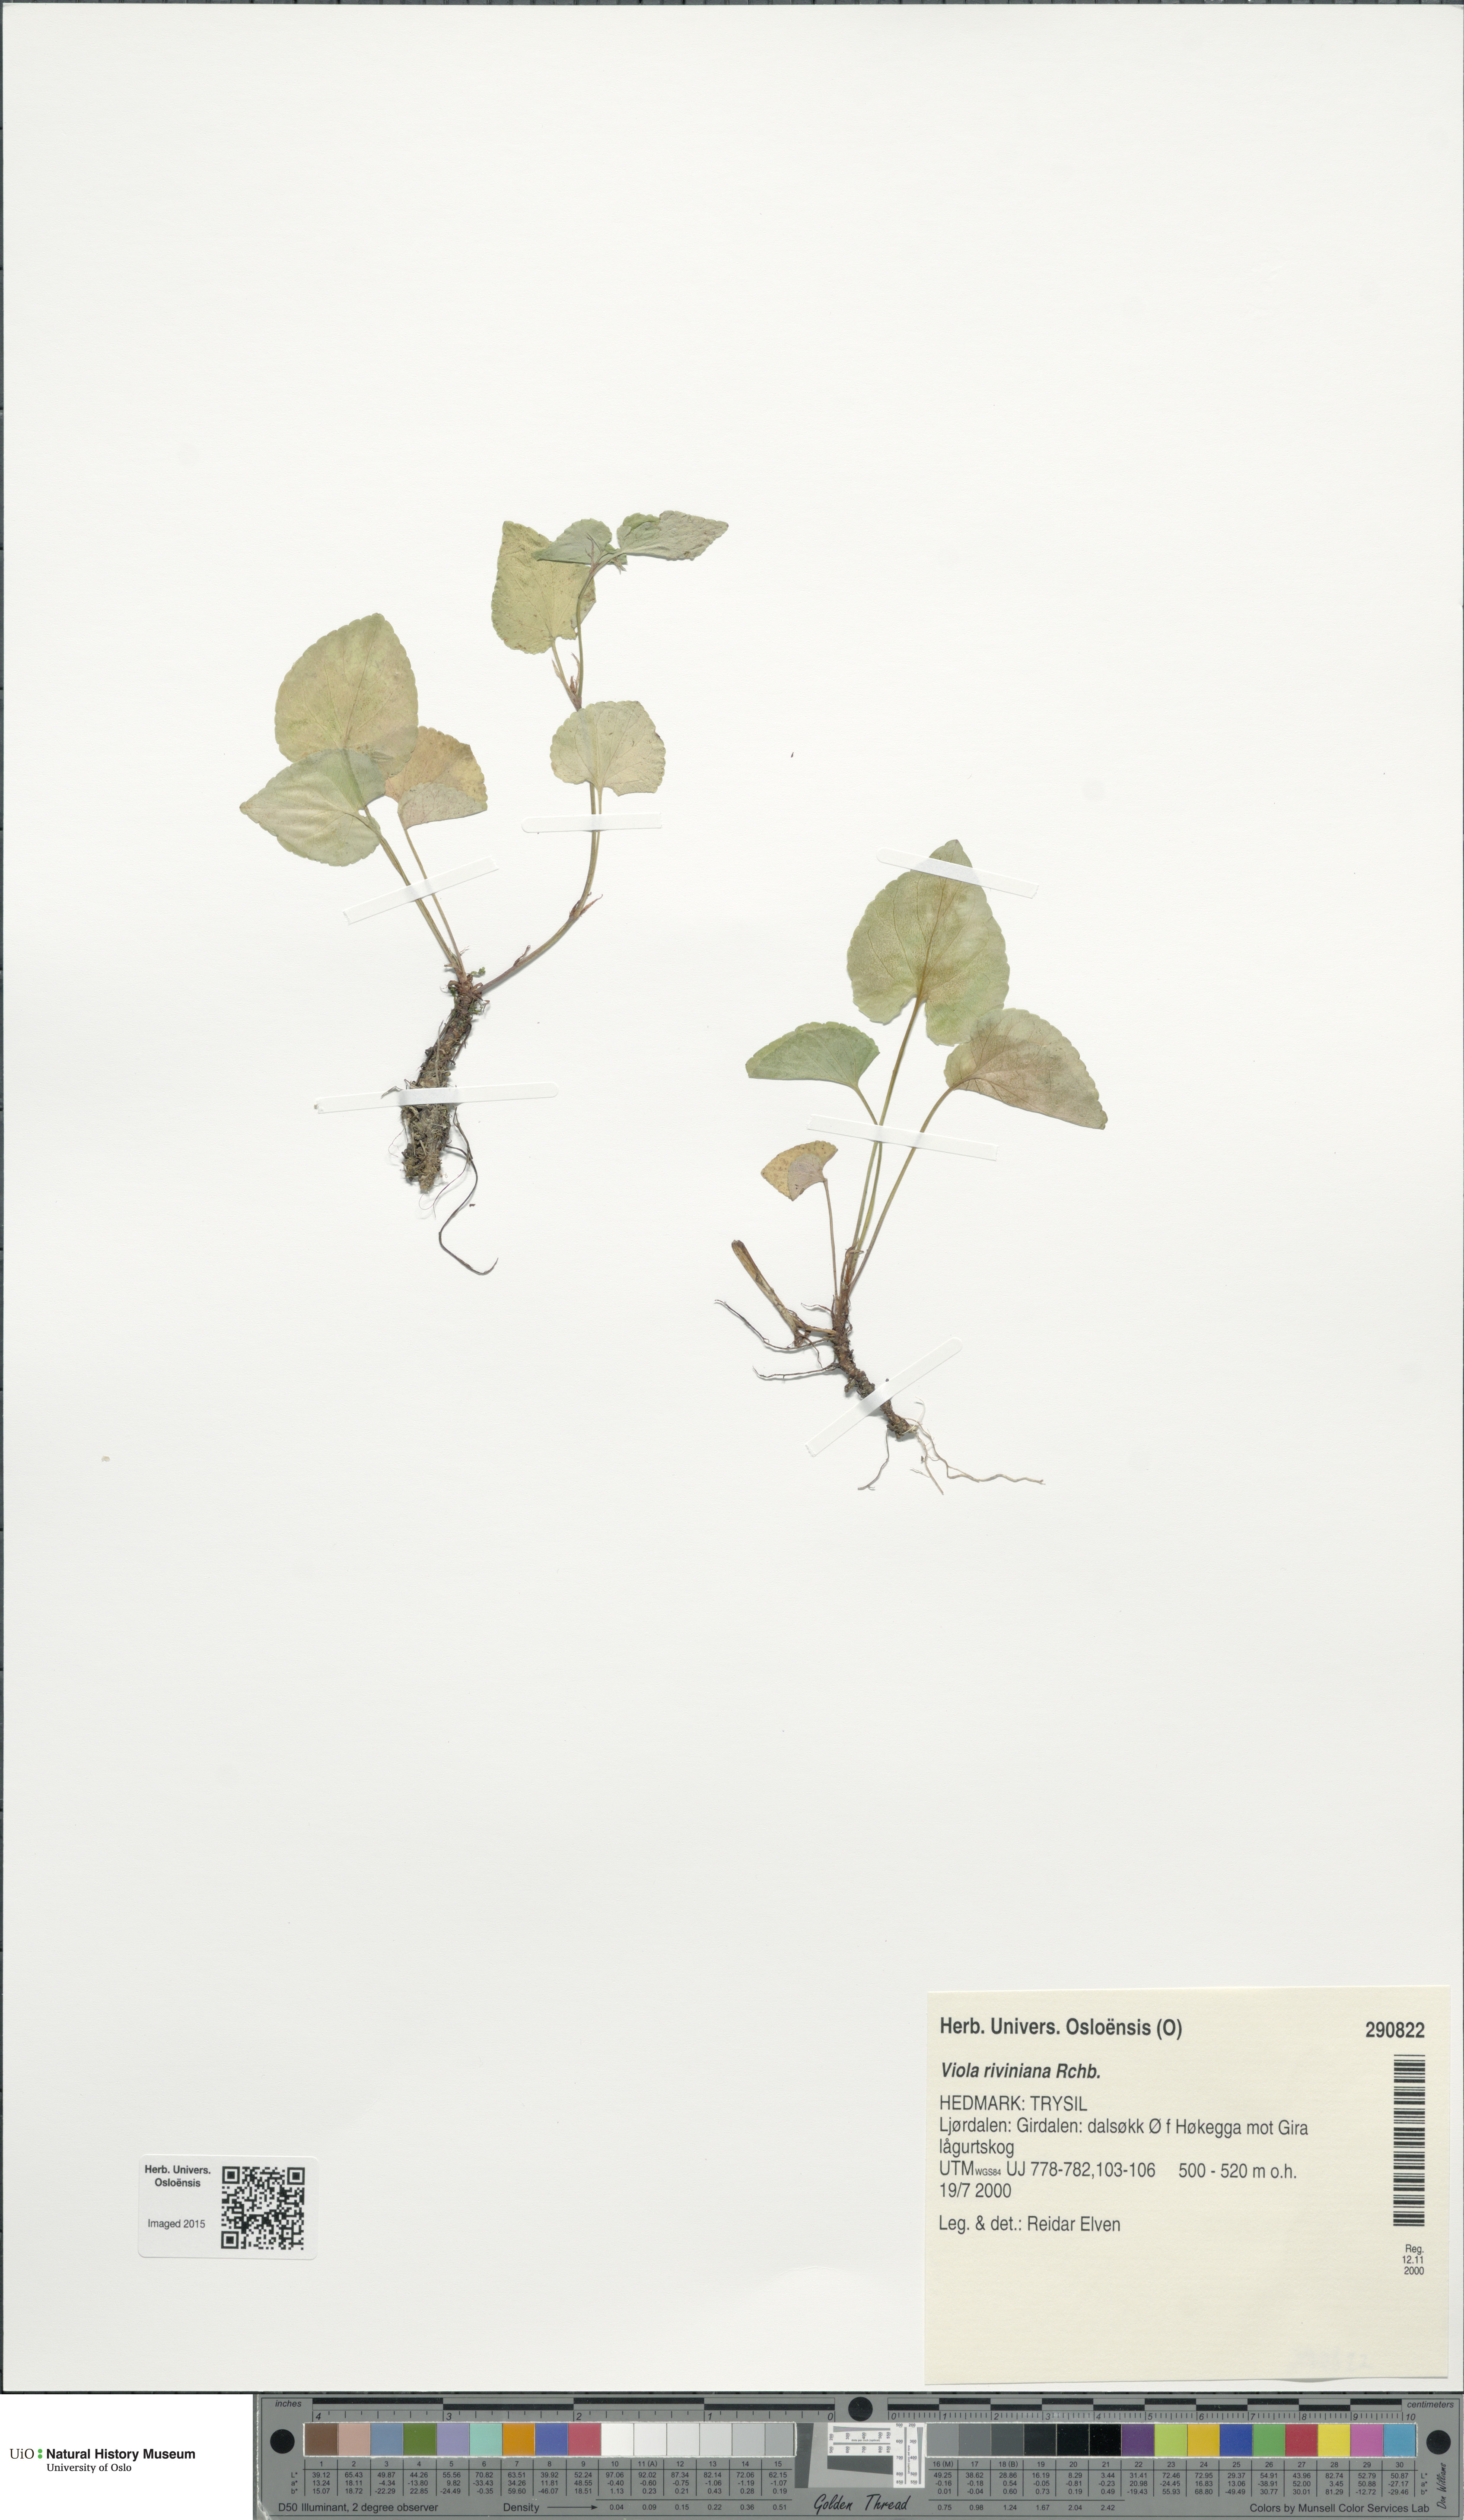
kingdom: Plantae
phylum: Tracheophyta
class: Magnoliopsida
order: Malpighiales
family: Violaceae
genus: Viola
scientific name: Viola riviniana
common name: Common dog-violet
